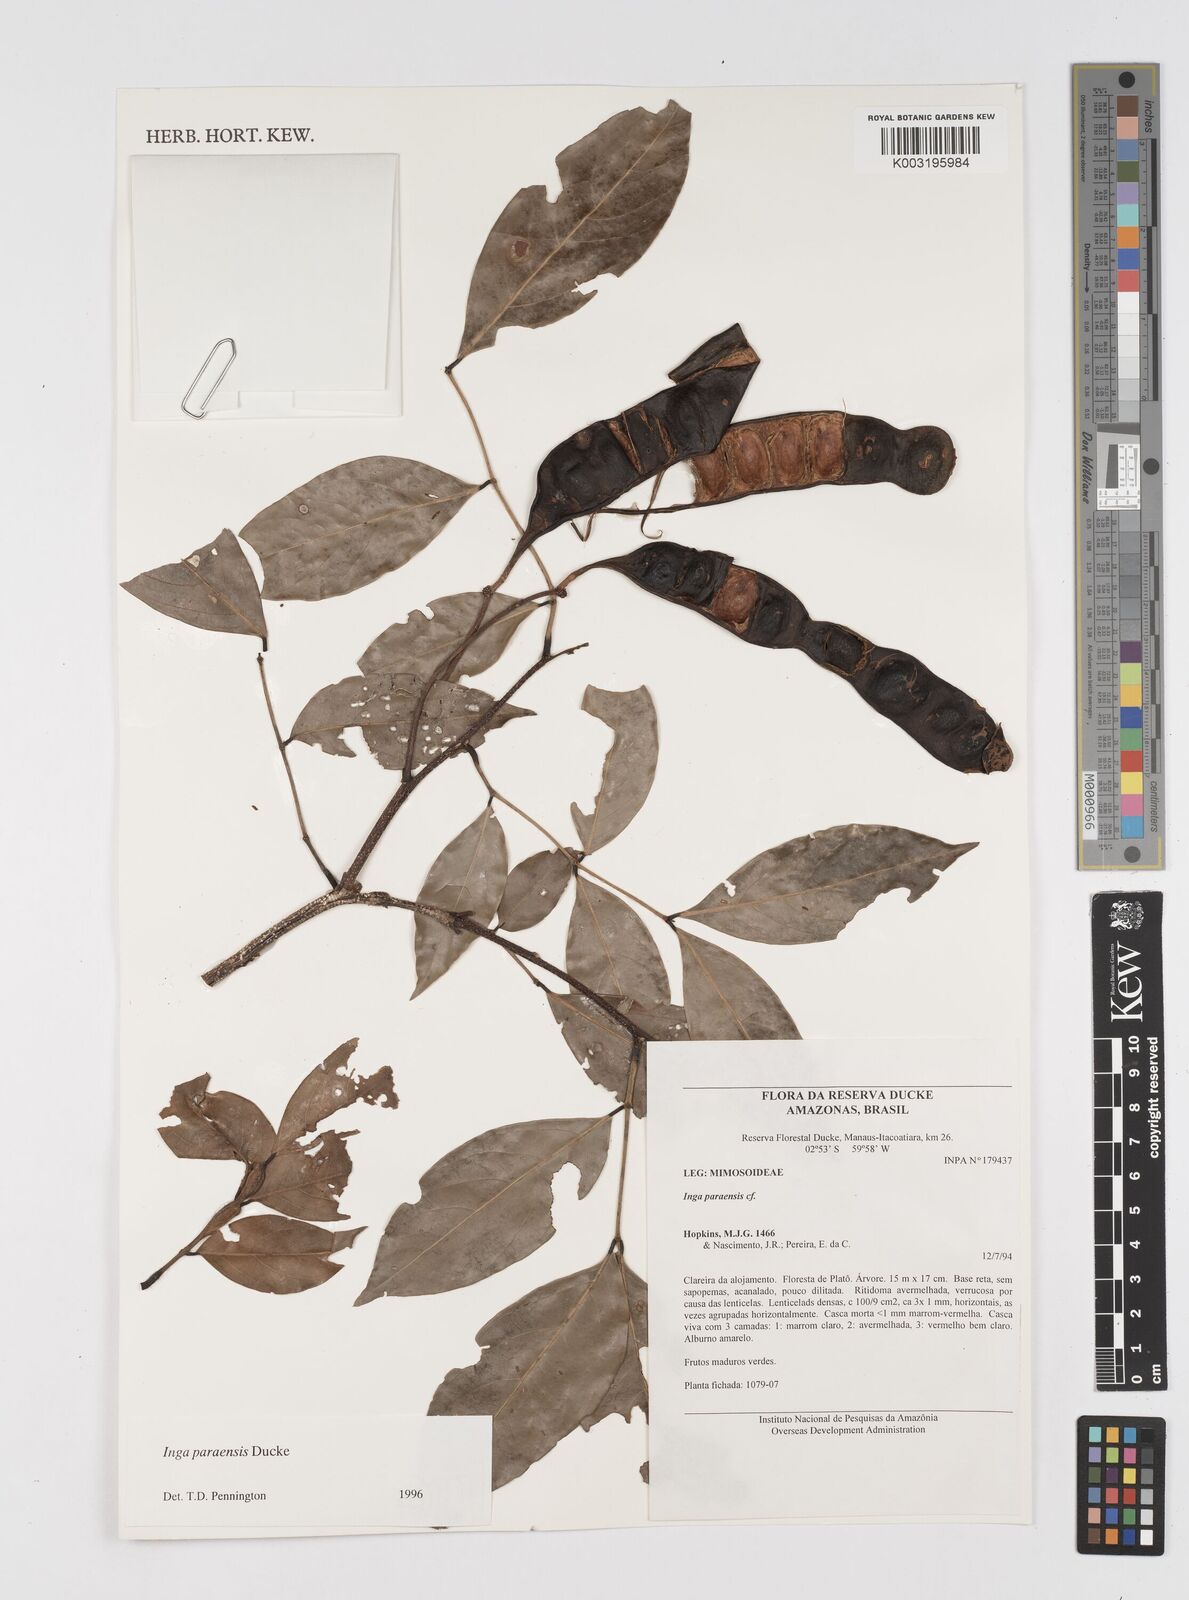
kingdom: Plantae
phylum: Tracheophyta
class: Magnoliopsida
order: Fabales
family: Fabaceae
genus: Inga
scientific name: Inga paraensis
